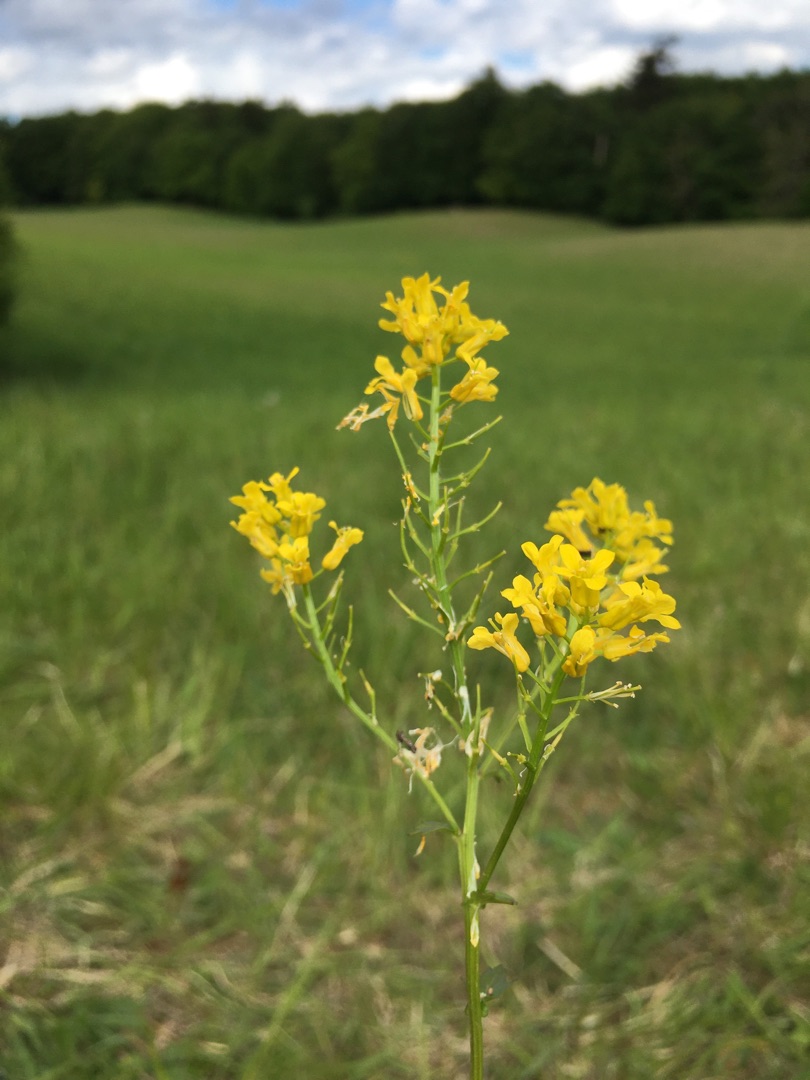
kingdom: Plantae
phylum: Tracheophyta
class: Magnoliopsida
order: Brassicales
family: Brassicaceae
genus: Barbarea
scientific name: Barbarea vulgaris
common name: Udspærret vinterkarse
